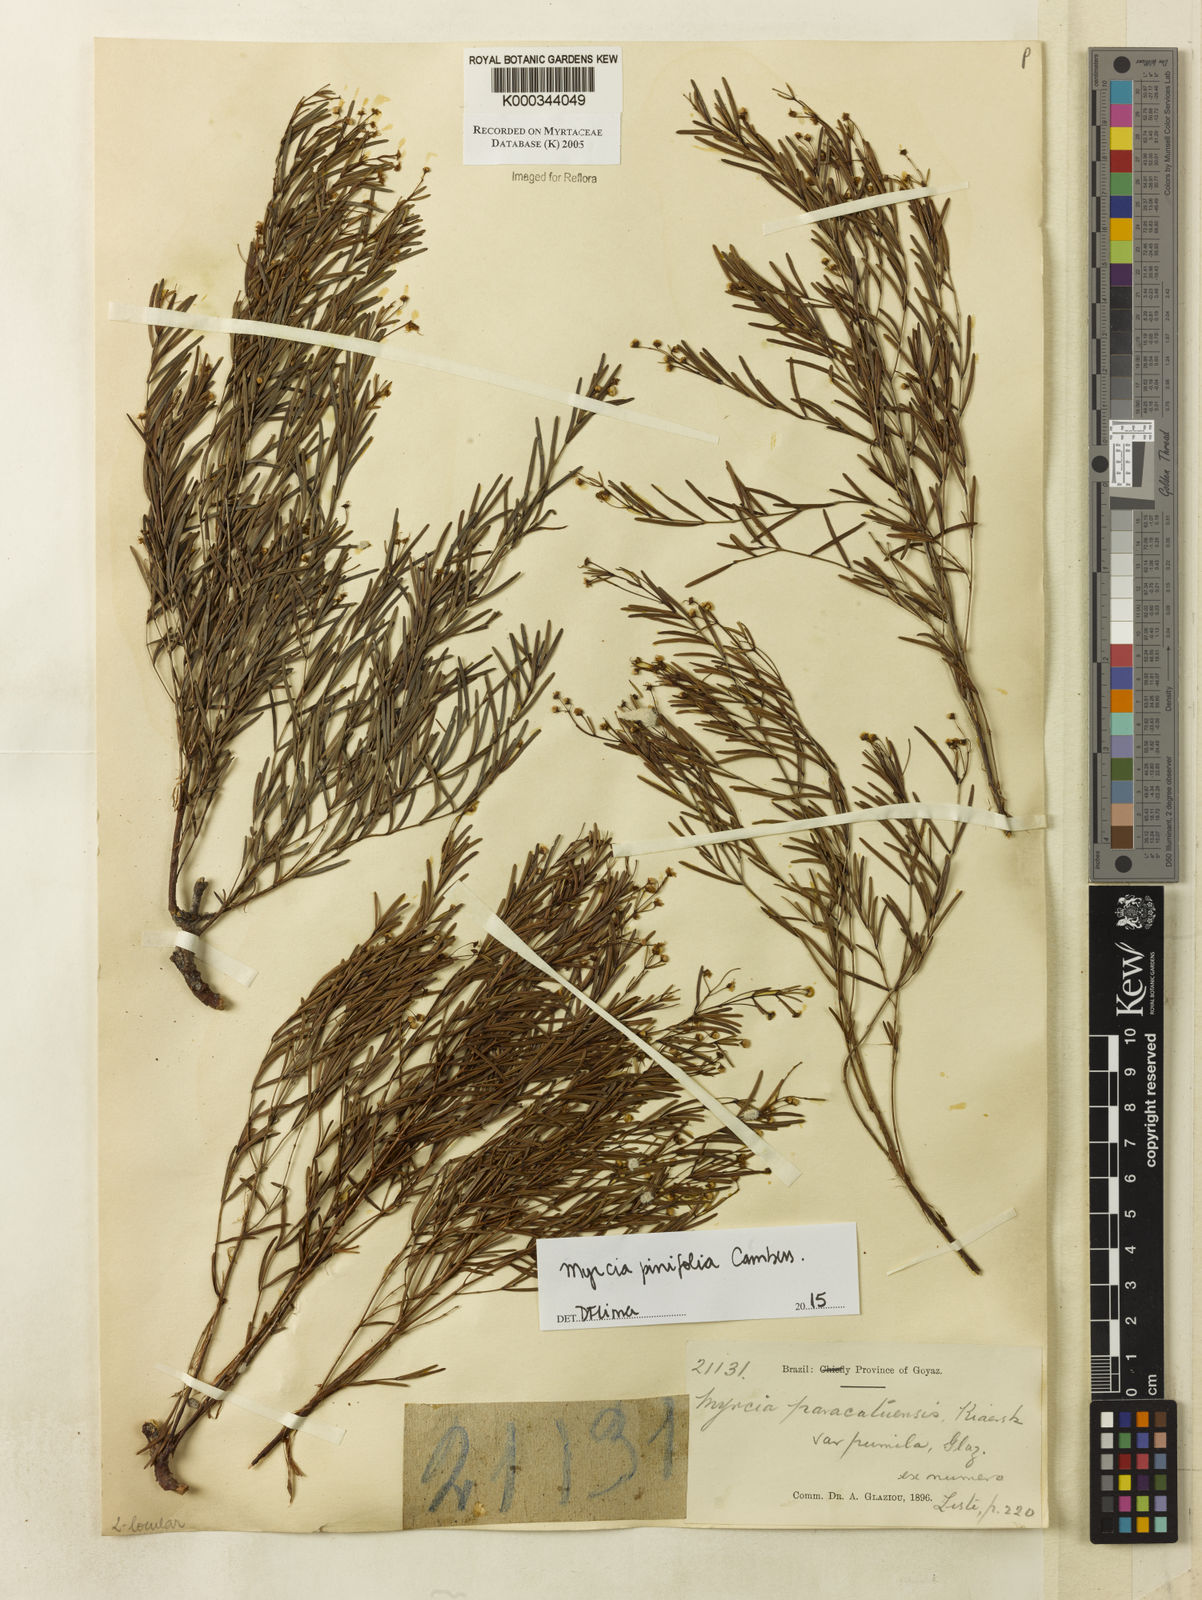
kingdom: Plantae
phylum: Tracheophyta
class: Magnoliopsida
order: Myrtales
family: Myrtaceae
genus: Myrcia
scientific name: Myrcia paracatuensis
